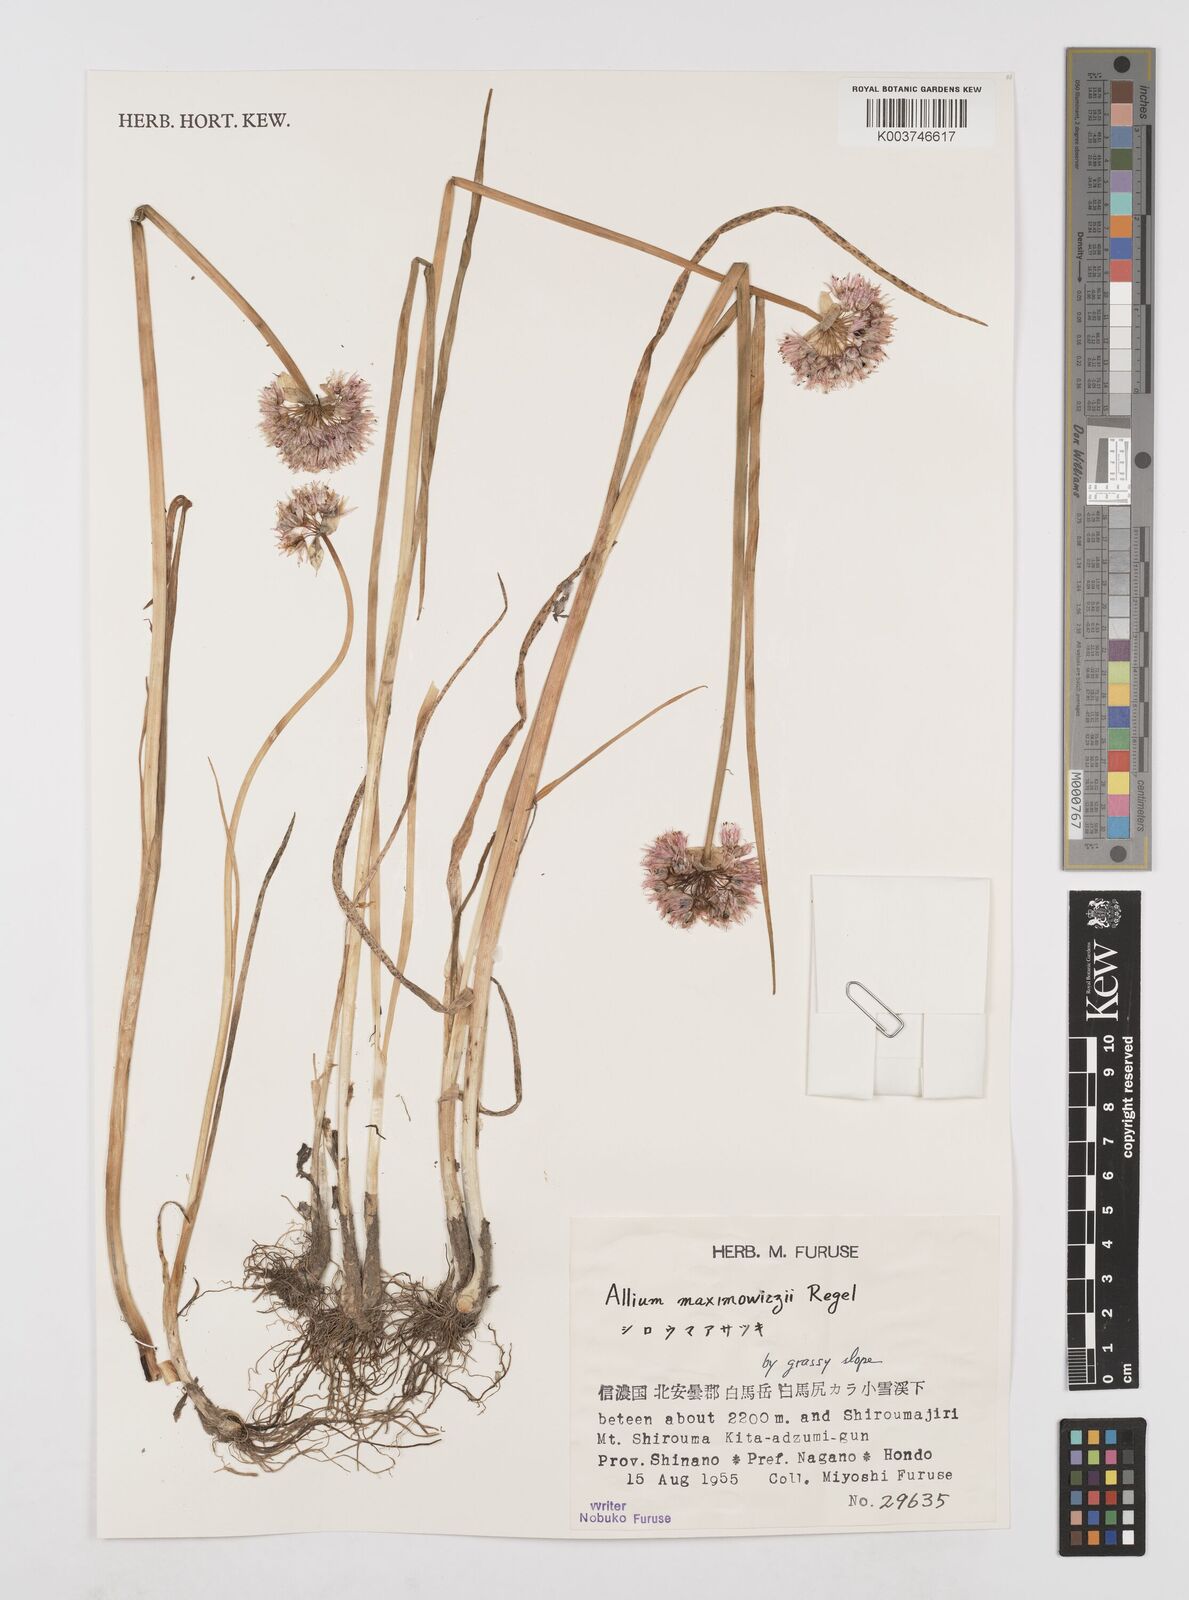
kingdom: Plantae
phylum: Tracheophyta
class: Liliopsida
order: Asparagales
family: Amaryllidaceae
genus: Allium
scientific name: Allium maximowiczii
